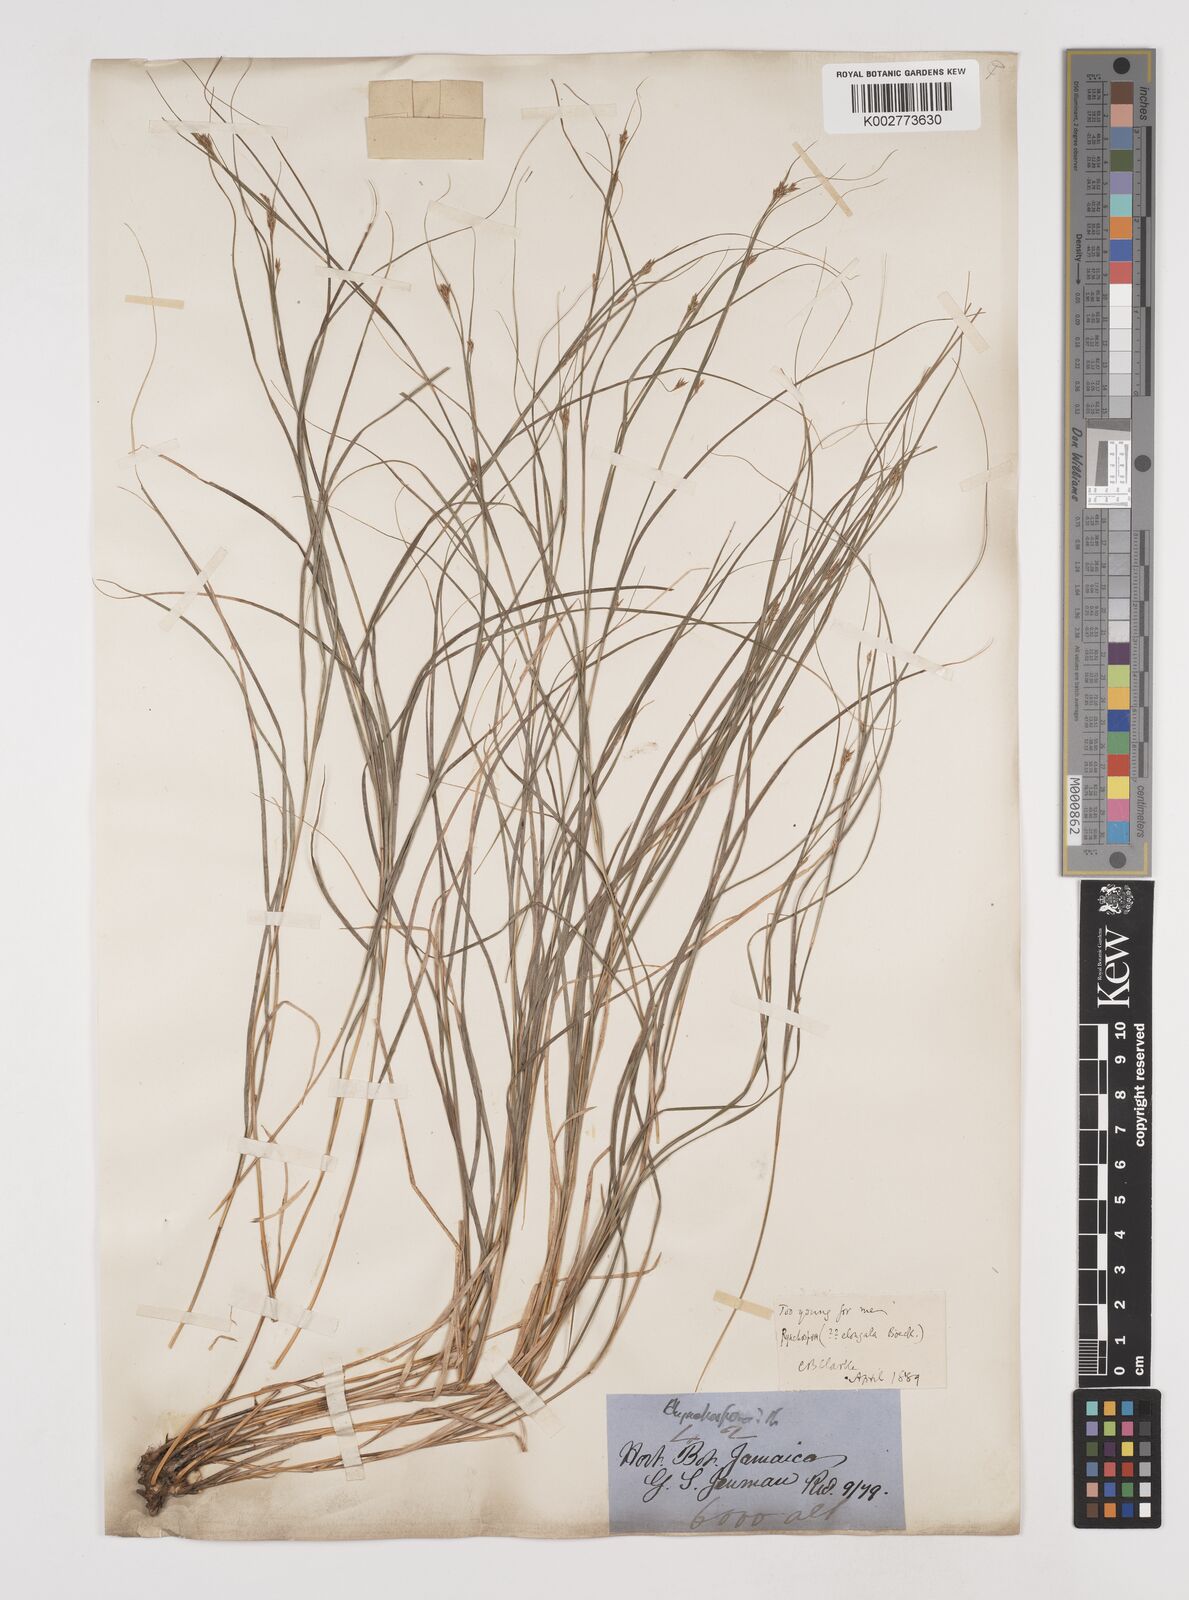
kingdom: Plantae
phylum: Tracheophyta
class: Liliopsida
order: Poales
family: Cyperaceae
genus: Rhynchospora
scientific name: Rhynchospora biflora
